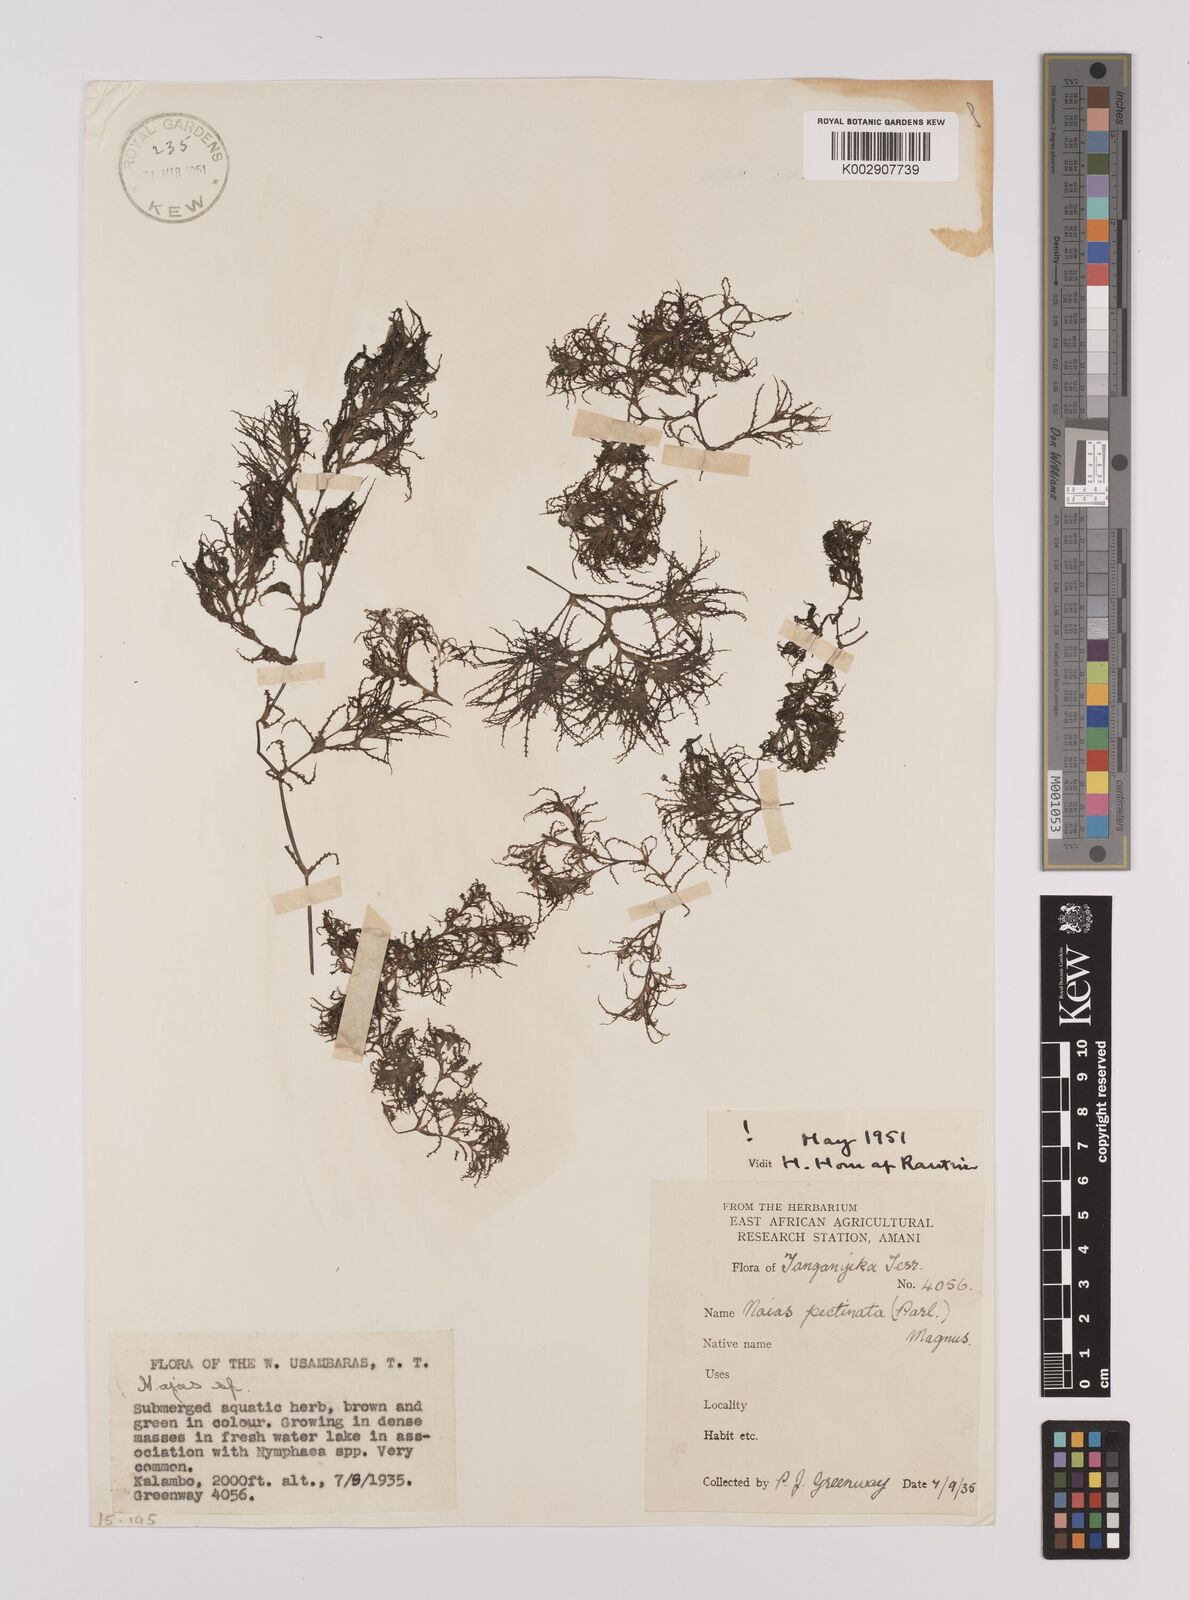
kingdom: Plantae
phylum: Tracheophyta
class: Liliopsida
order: Alismatales
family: Hydrocharitaceae
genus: Najas
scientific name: Najas horrida
